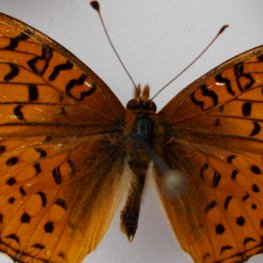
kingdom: Animalia
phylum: Arthropoda
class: Insecta
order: Lepidoptera
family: Nymphalidae
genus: Speyeria
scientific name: Speyeria atlantis
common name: Northwestern Fritillary
